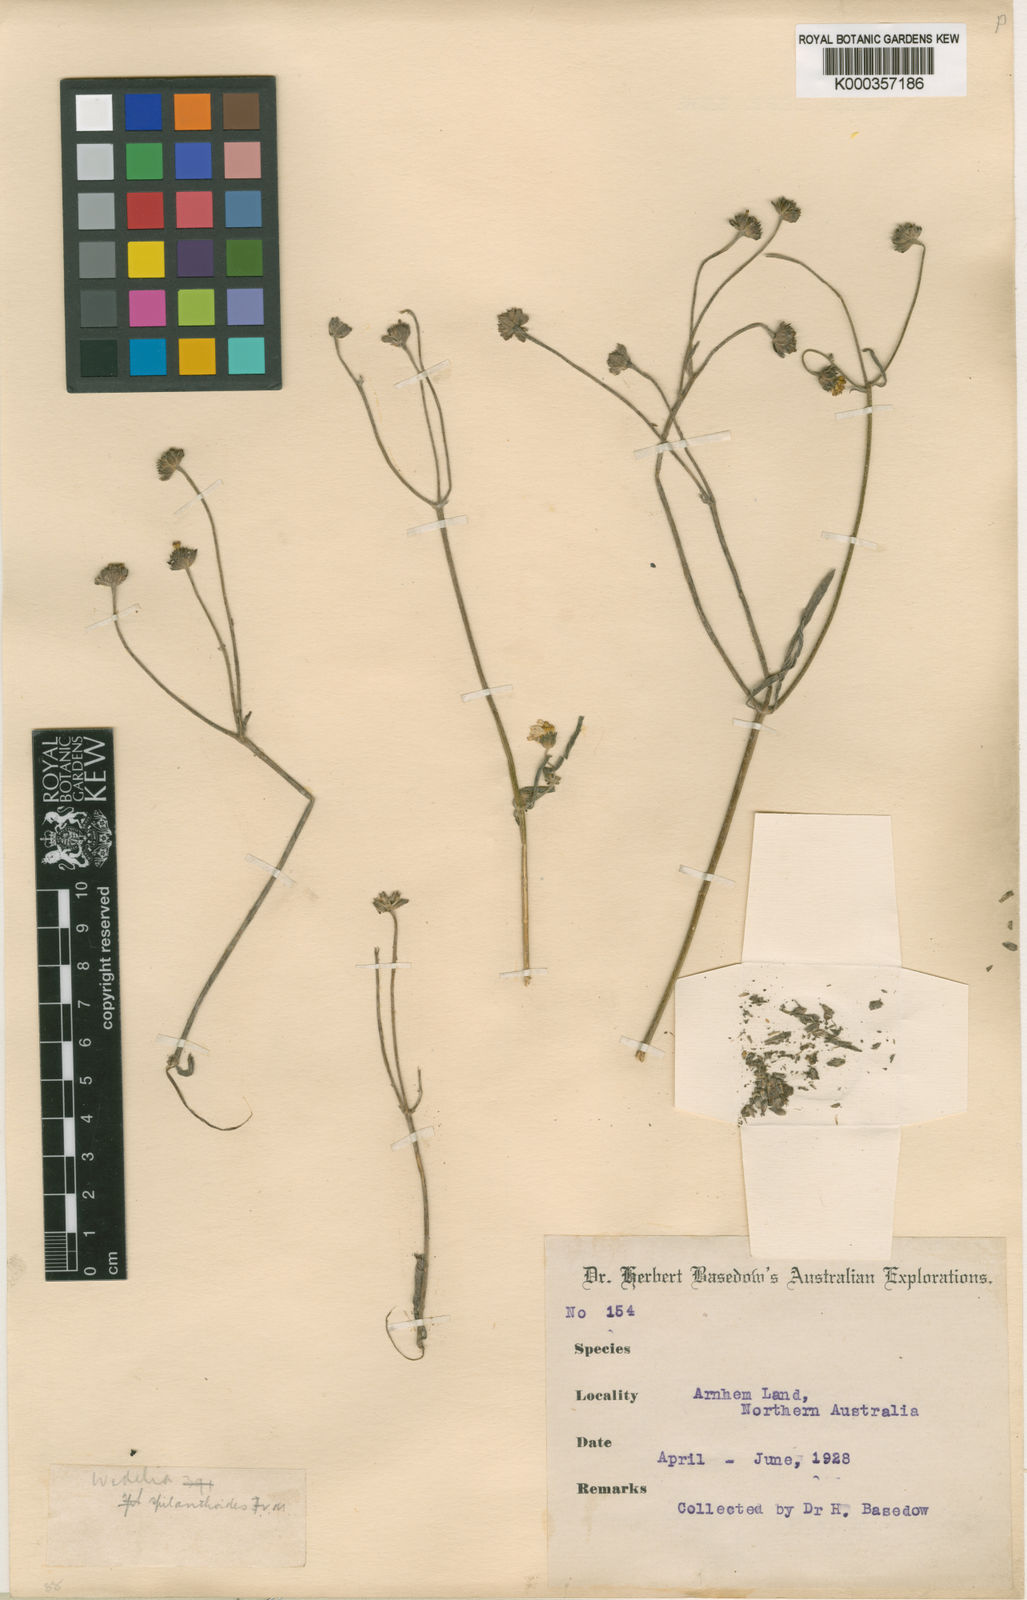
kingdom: Plantae
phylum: Tracheophyta
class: Magnoliopsida
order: Asterales
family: Asteraceae
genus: Apowollastonia
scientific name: Apowollastonia spilanthoides
